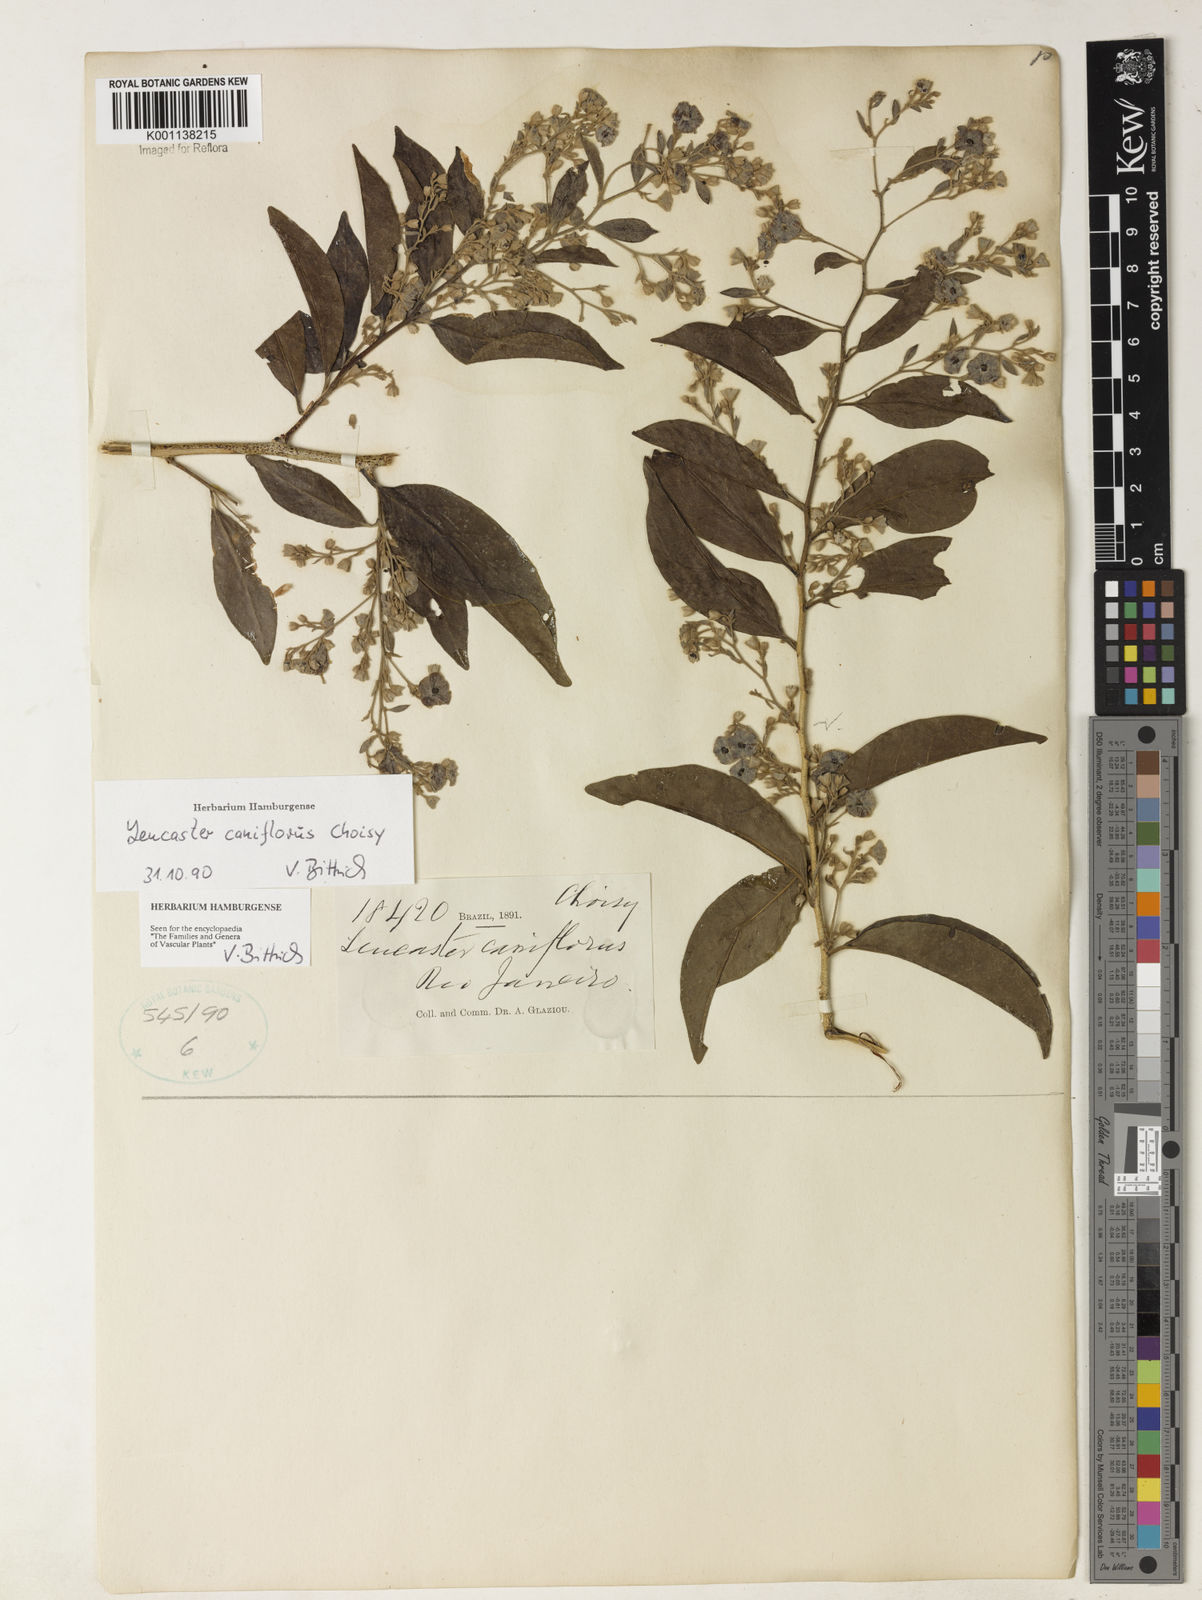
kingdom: Plantae
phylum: Tracheophyta
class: Magnoliopsida
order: Caryophyllales
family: Nyctaginaceae
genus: Leucaster
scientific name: Leucaster caniflorus
